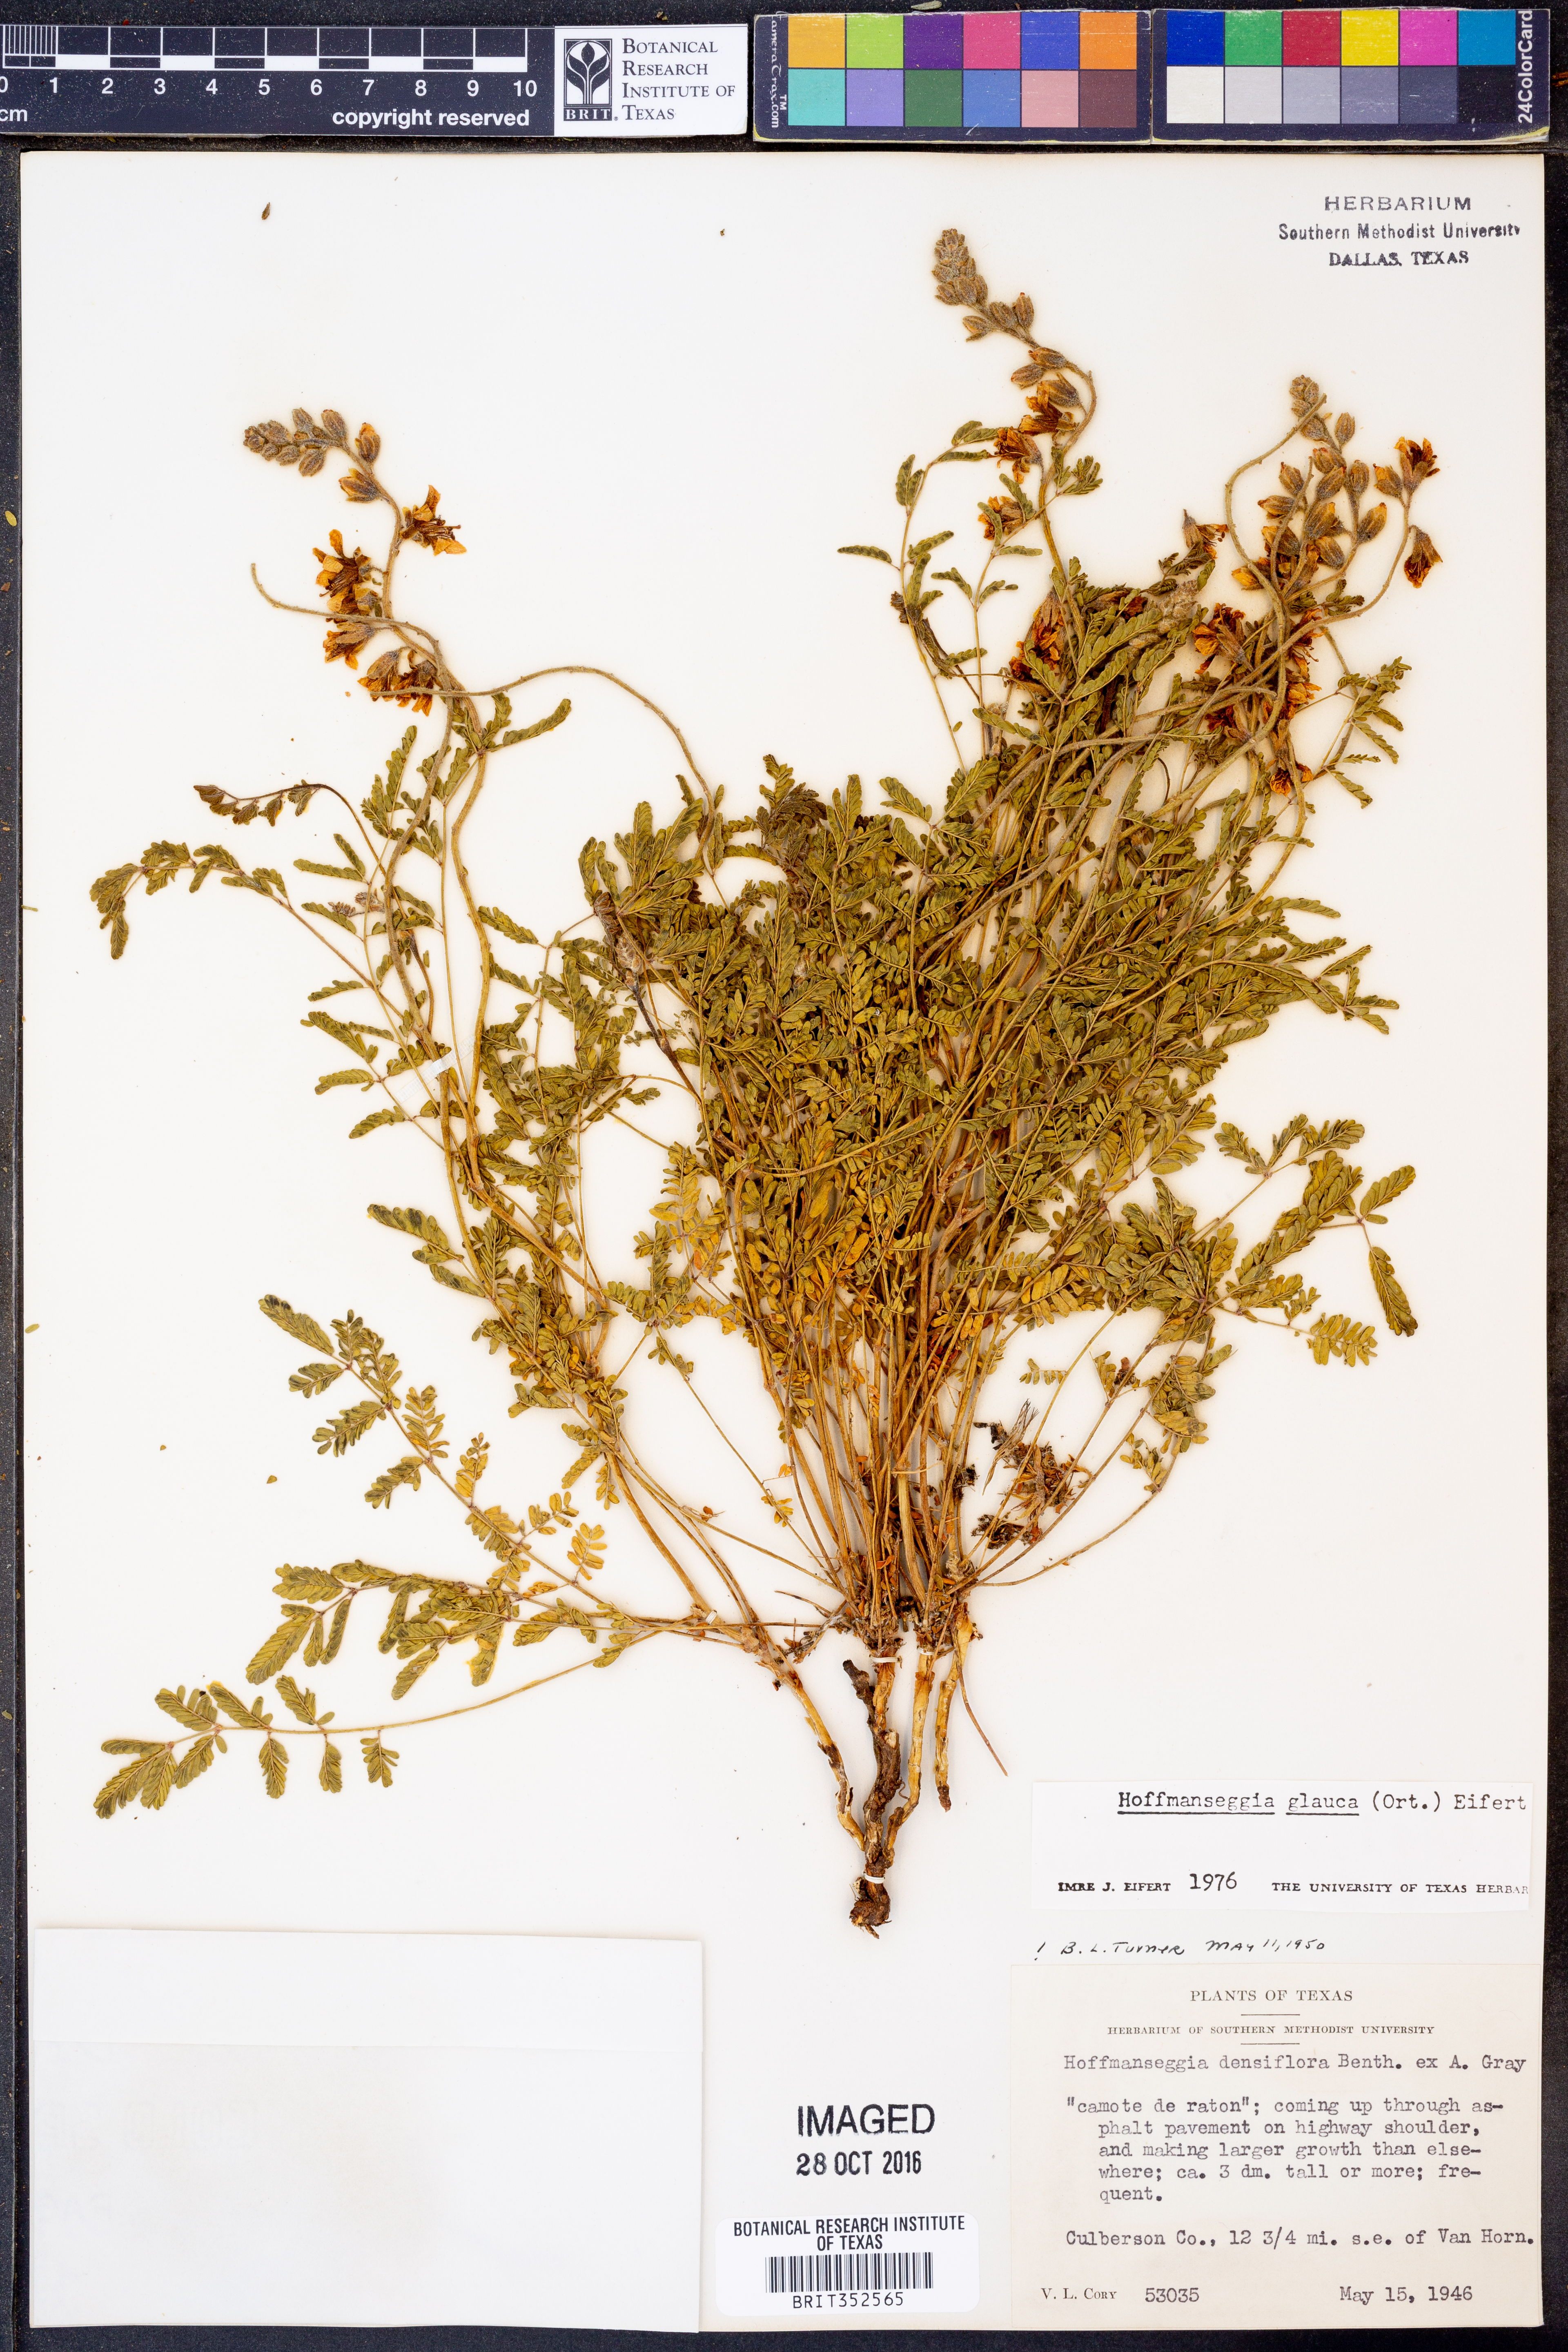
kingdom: Plantae
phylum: Tracheophyta
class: Magnoliopsida
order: Fabales
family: Fabaceae
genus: Hoffmannseggia
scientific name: Hoffmannseggia glauca
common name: Pignut
